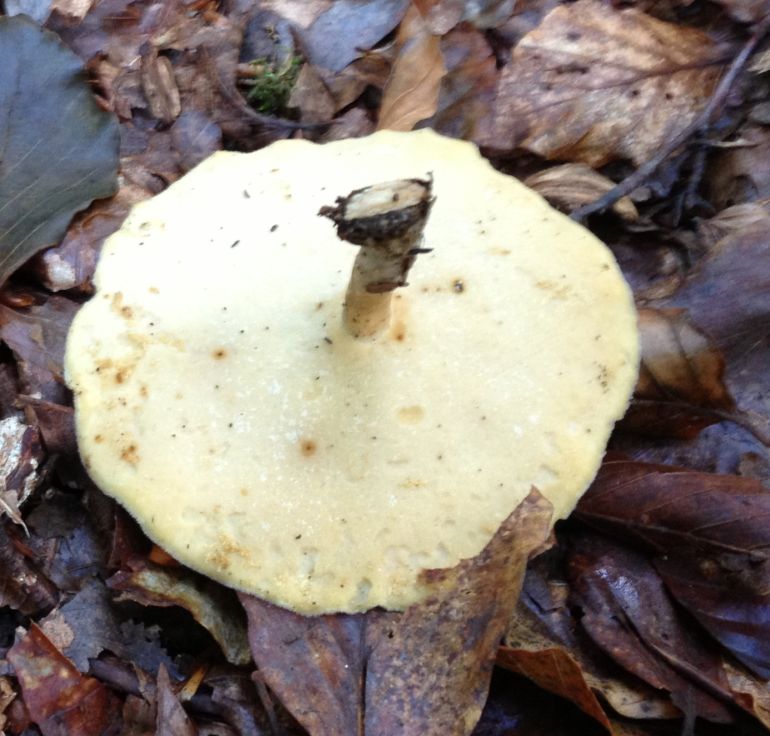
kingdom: Fungi
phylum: Basidiomycota
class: Agaricomycetes
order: Polyporales
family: Polyporaceae
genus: Lentinus
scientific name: Lentinus substrictus
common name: forårs-stilkporesvamp
